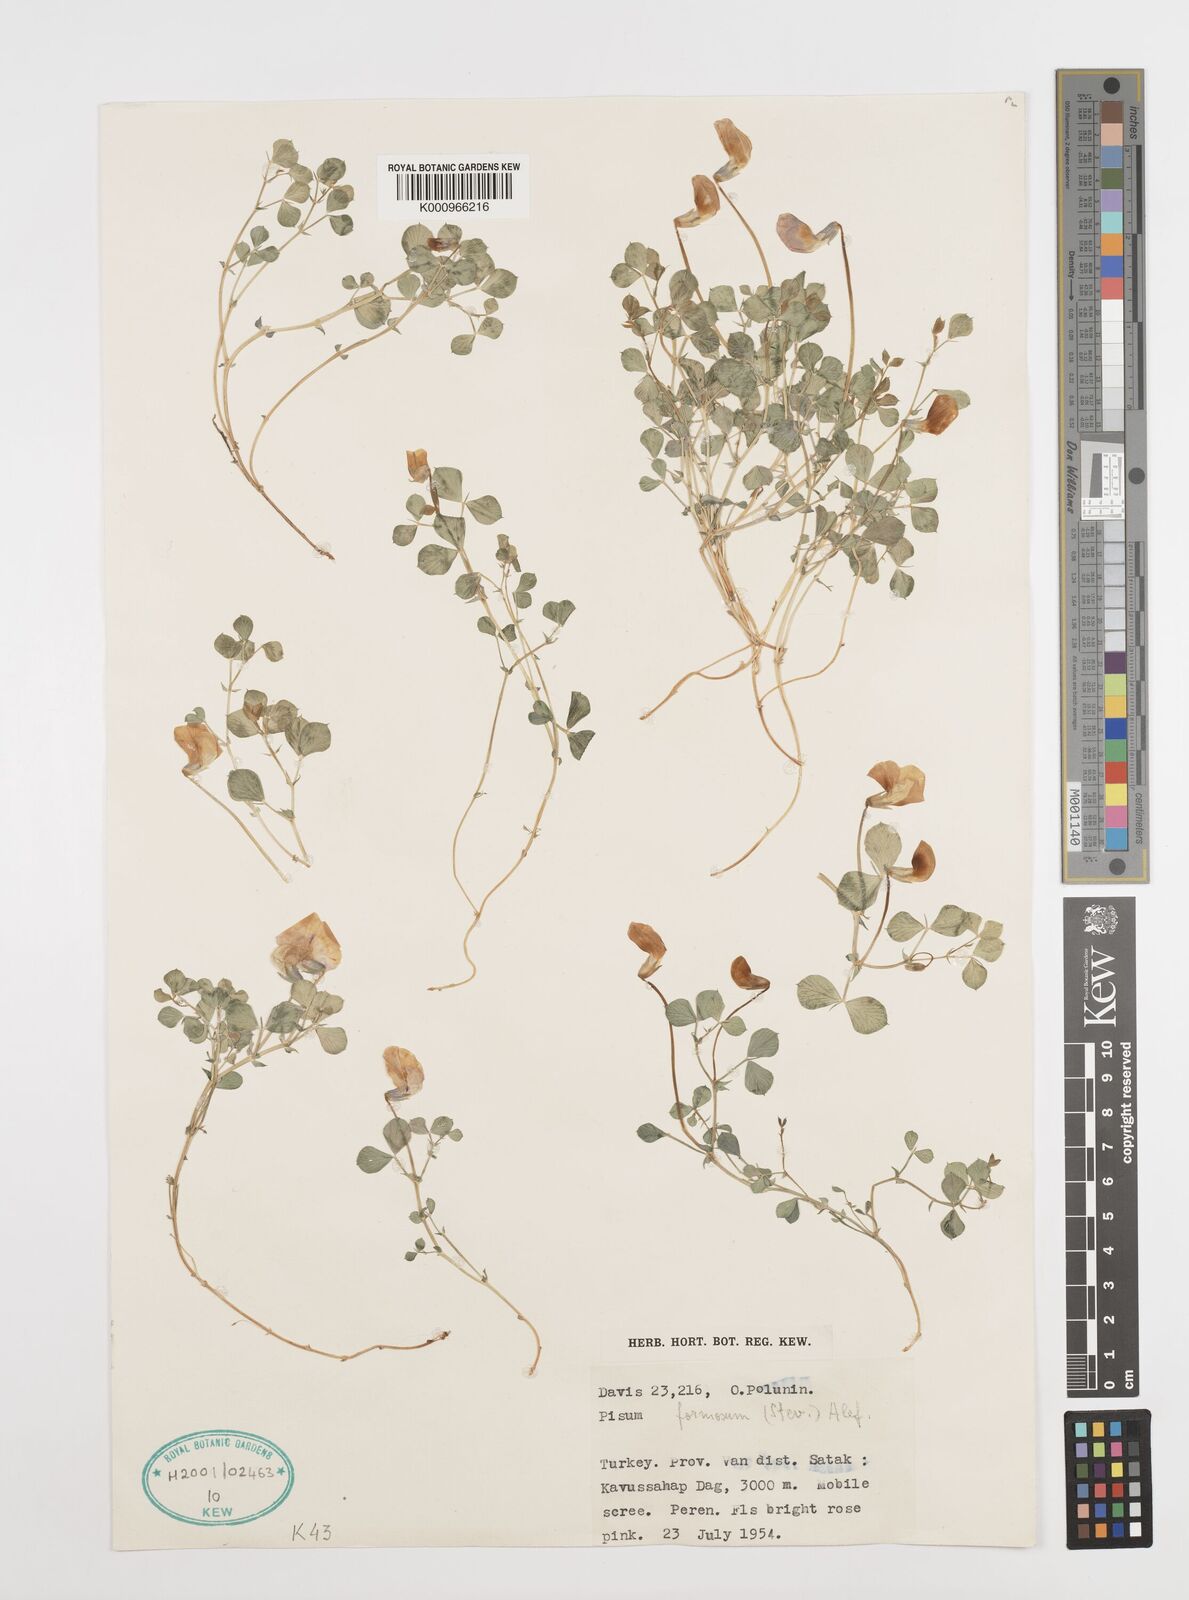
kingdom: Plantae
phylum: Tracheophyta
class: Magnoliopsida
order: Fabales
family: Fabaceae
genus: Lathyrus
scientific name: Lathyrus formosus
